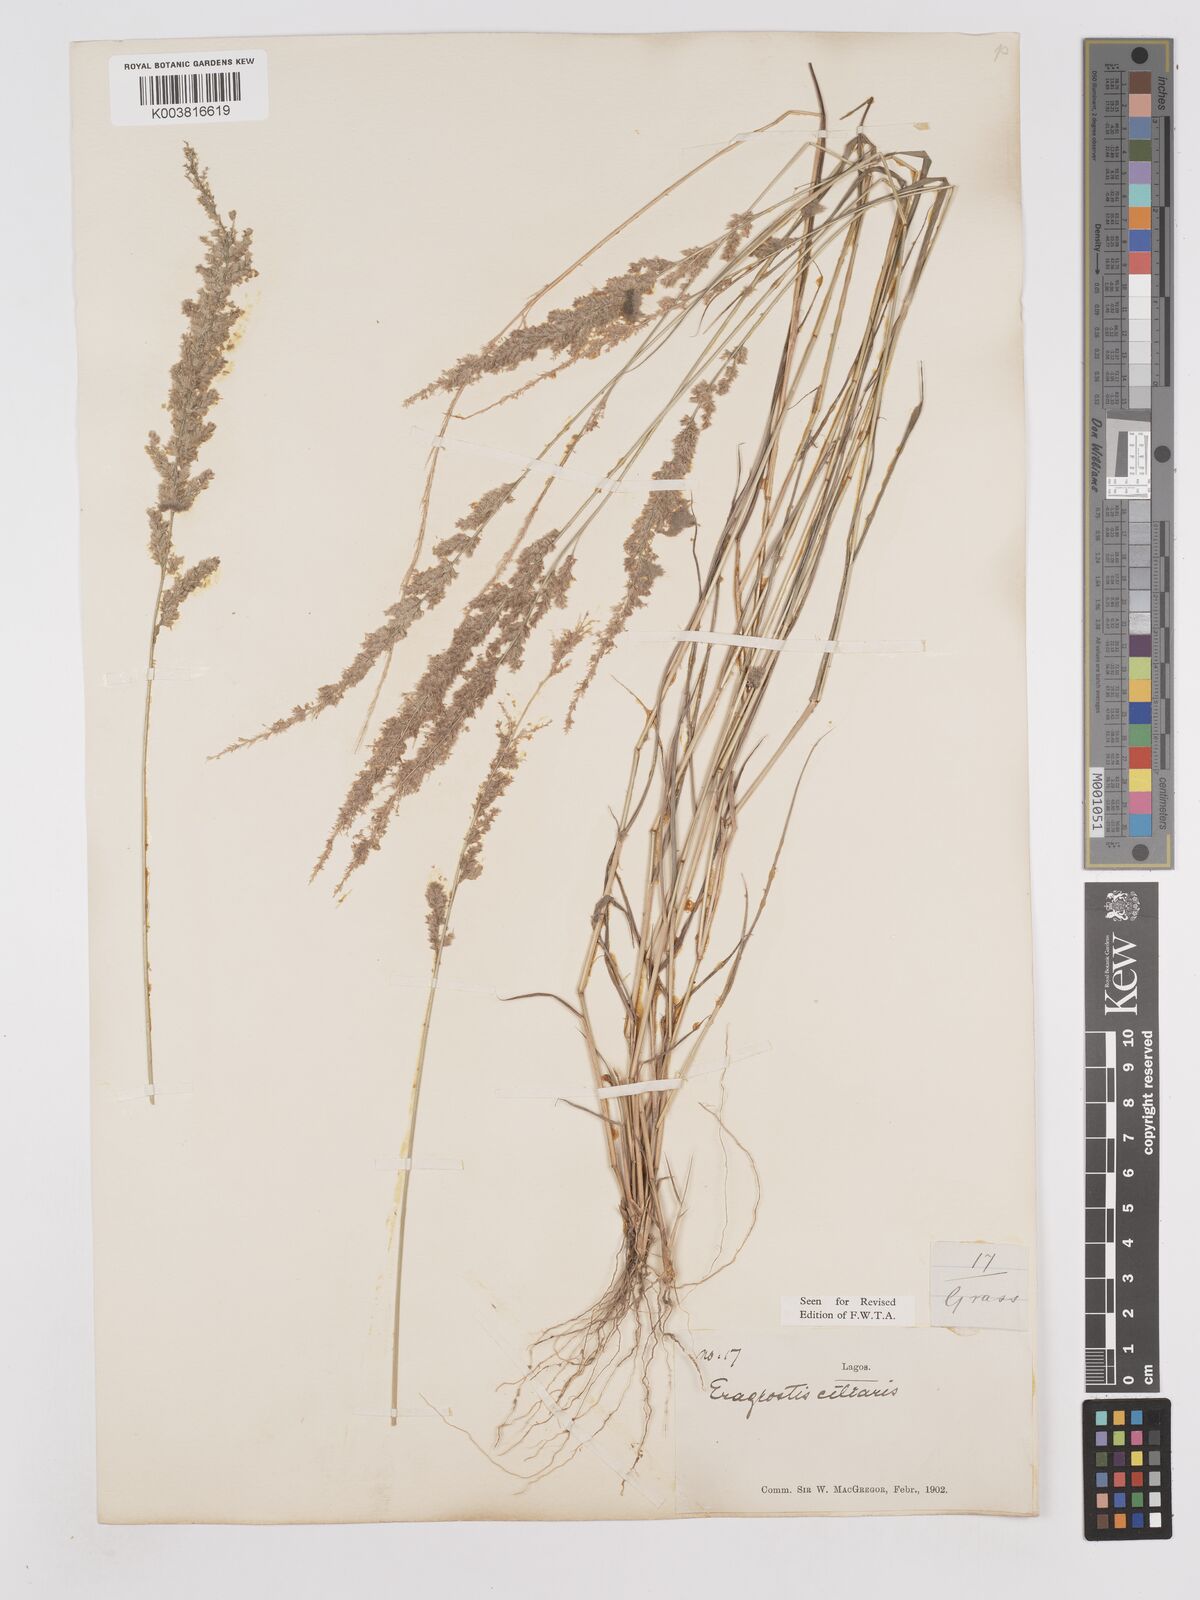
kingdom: Plantae
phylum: Tracheophyta
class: Liliopsida
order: Poales
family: Poaceae
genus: Eragrostis
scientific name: Eragrostis ciliaris
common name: Gophertail lovegrass
